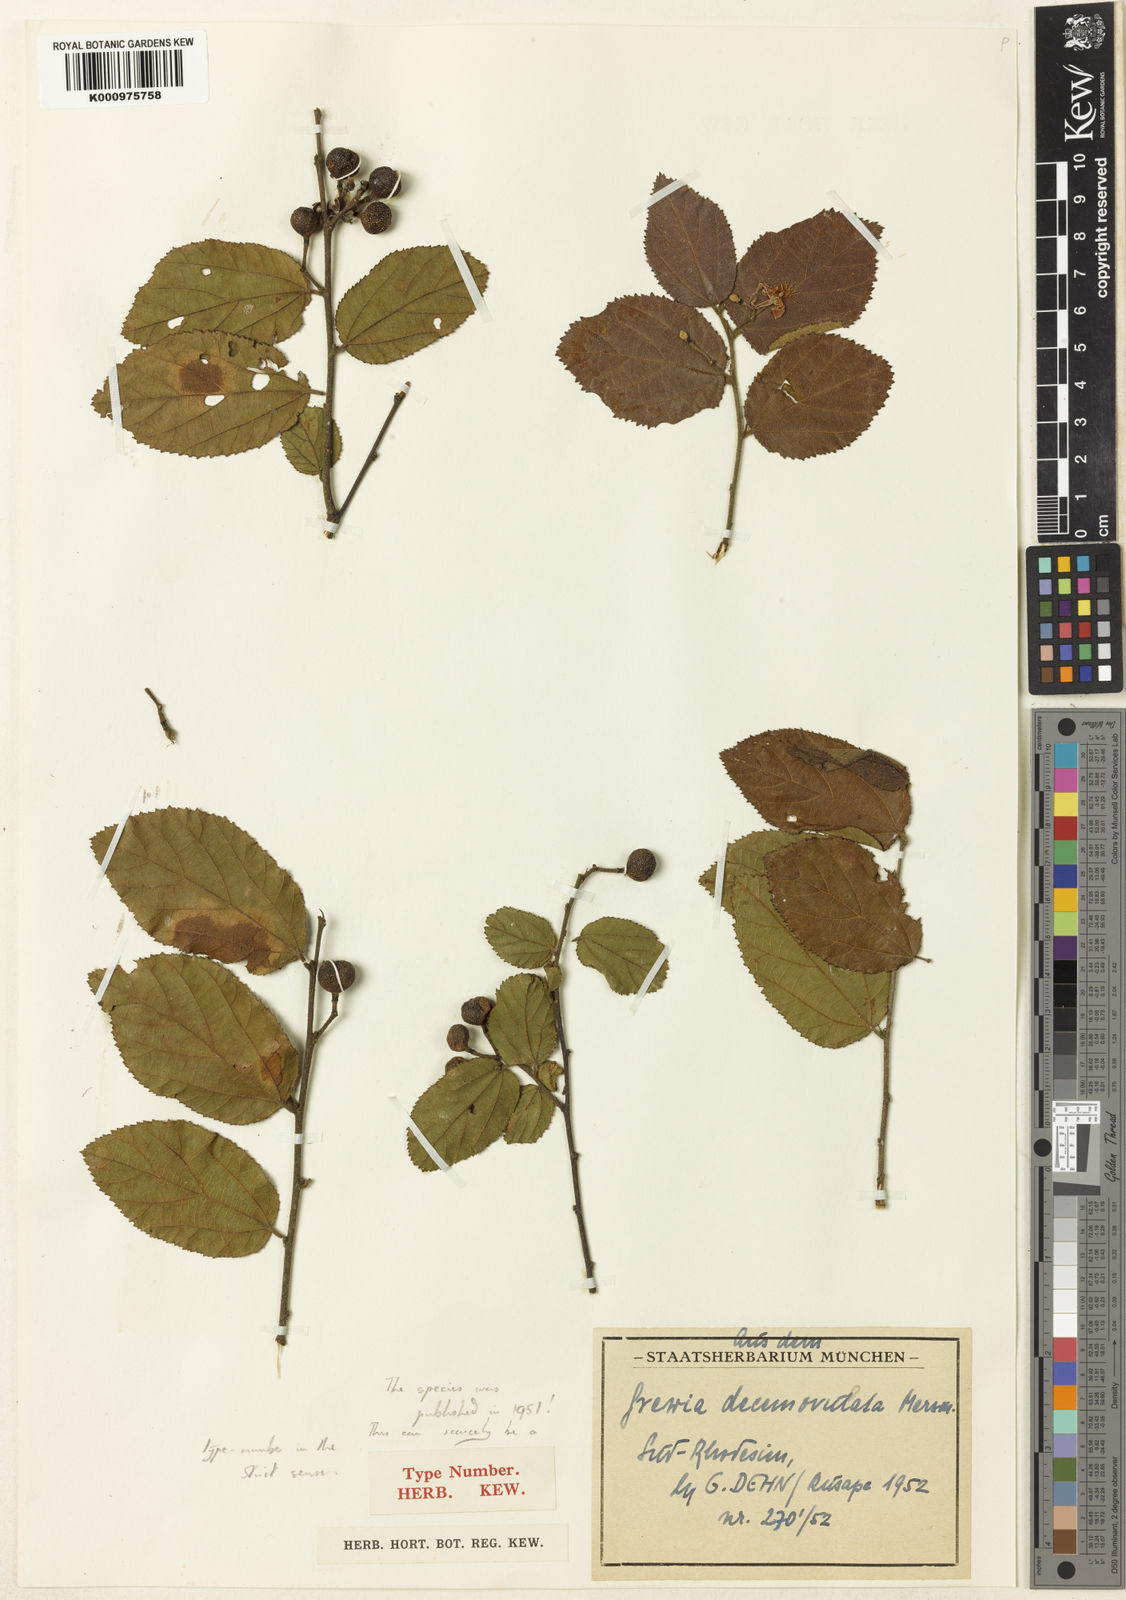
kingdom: Plantae
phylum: Tracheophyta
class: Magnoliopsida
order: Malvales
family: Malvaceae
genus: Grewia
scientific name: Grewia decemovulata
